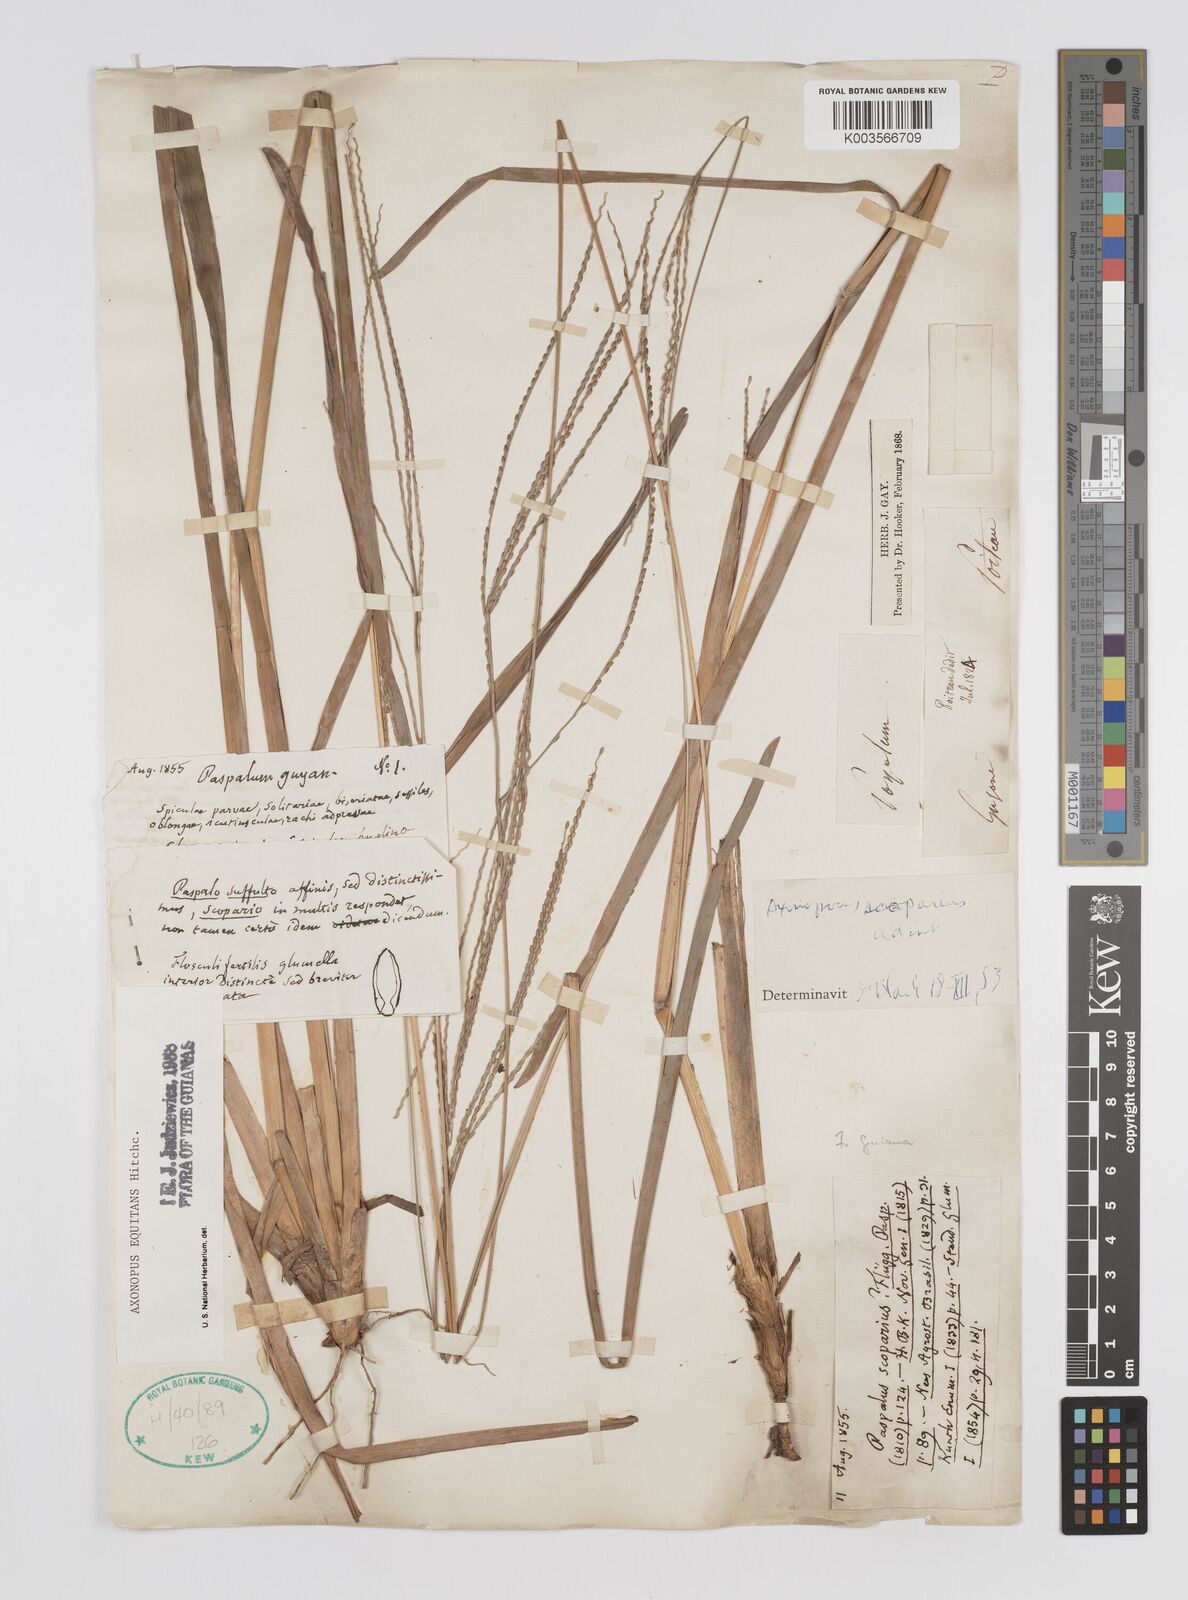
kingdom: Plantae
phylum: Tracheophyta
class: Liliopsida
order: Poales
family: Poaceae
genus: Axonopus
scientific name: Axonopus equitans
